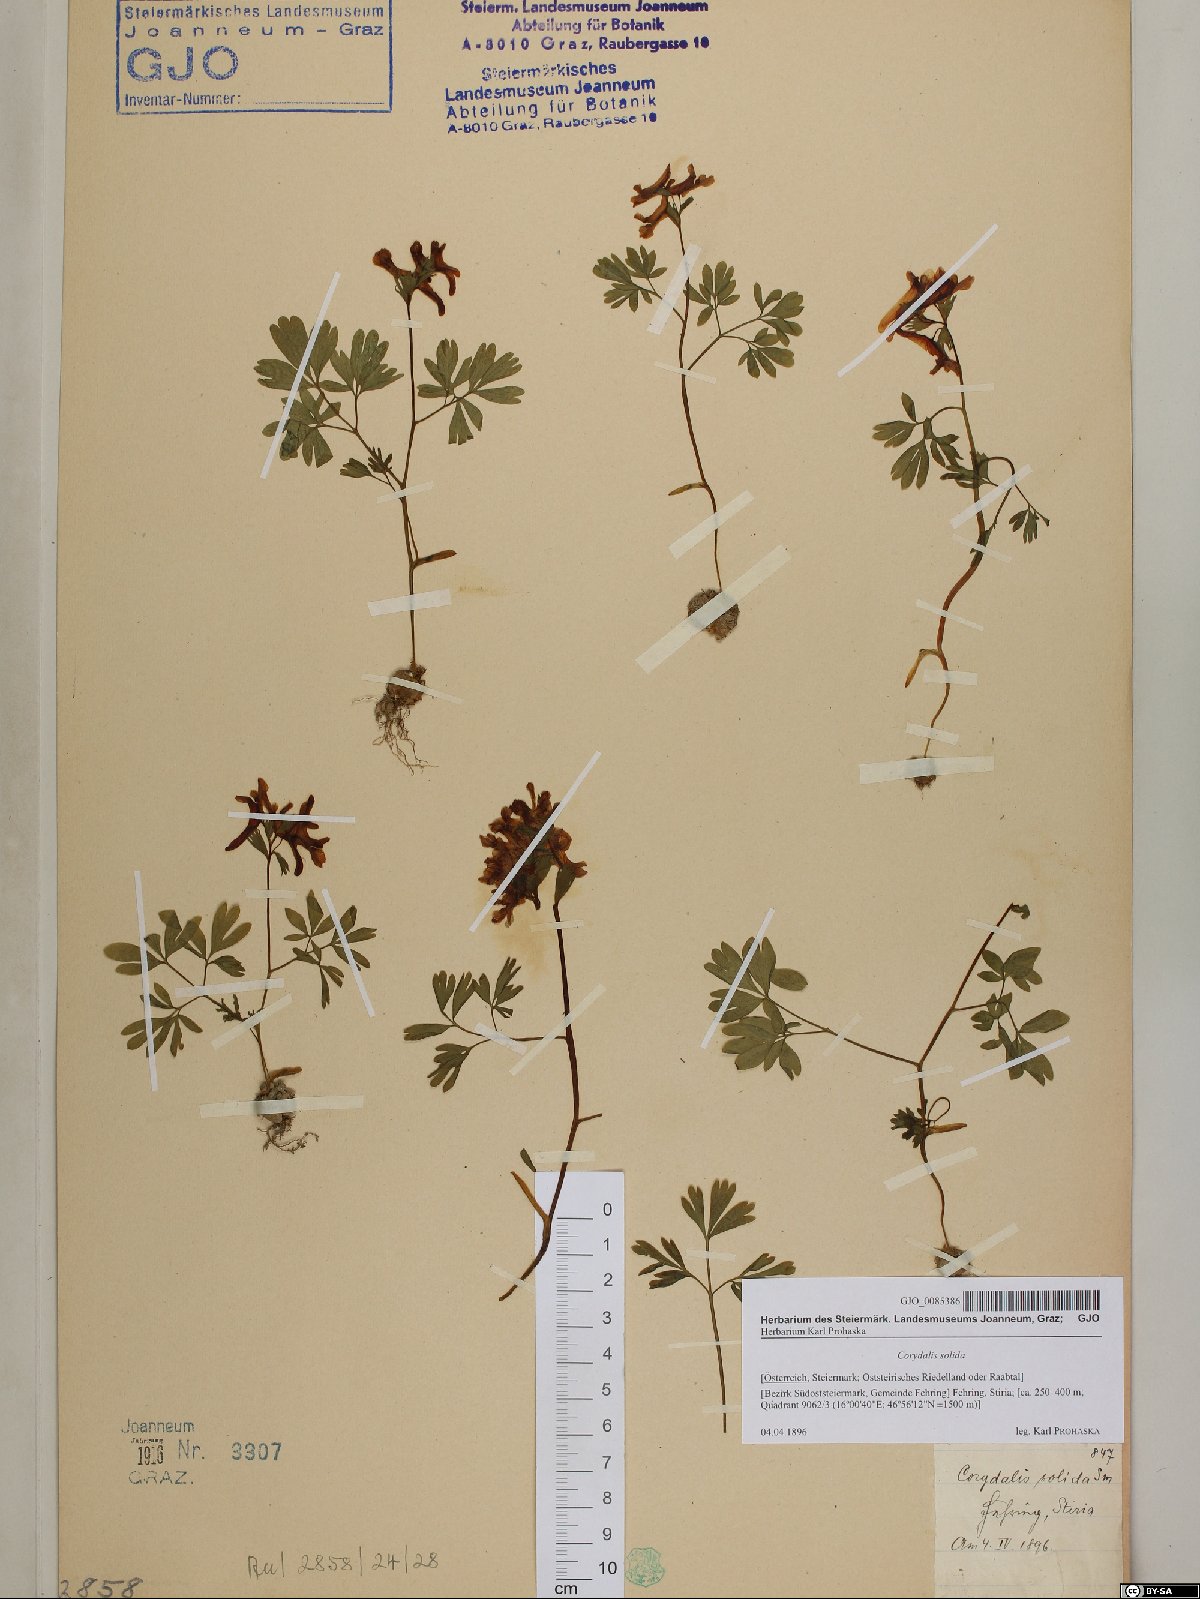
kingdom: Plantae
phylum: Tracheophyta
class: Magnoliopsida
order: Ranunculales
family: Papaveraceae
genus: Corydalis
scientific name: Corydalis solida
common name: Bird-in-a-bush
